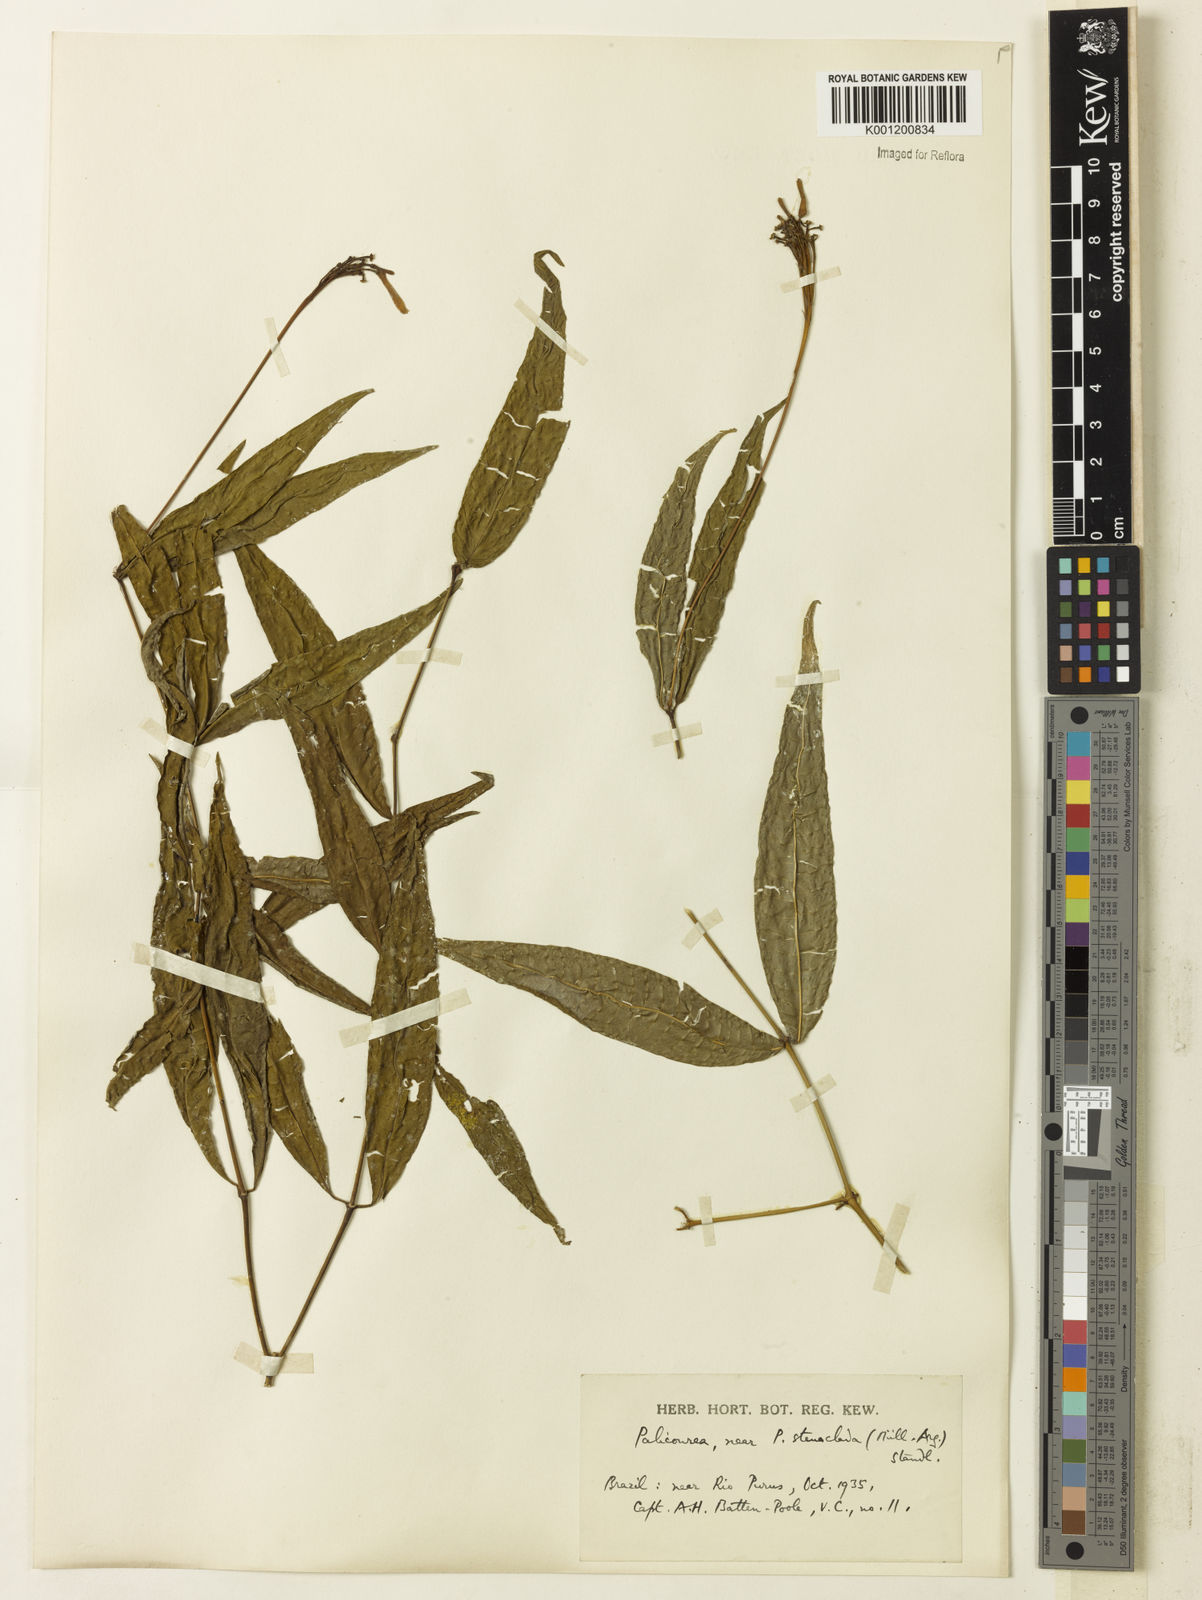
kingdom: Plantae
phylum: Tracheophyta
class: Magnoliopsida
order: Gentianales
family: Rubiaceae
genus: Palicourea
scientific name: Palicourea croceoides
